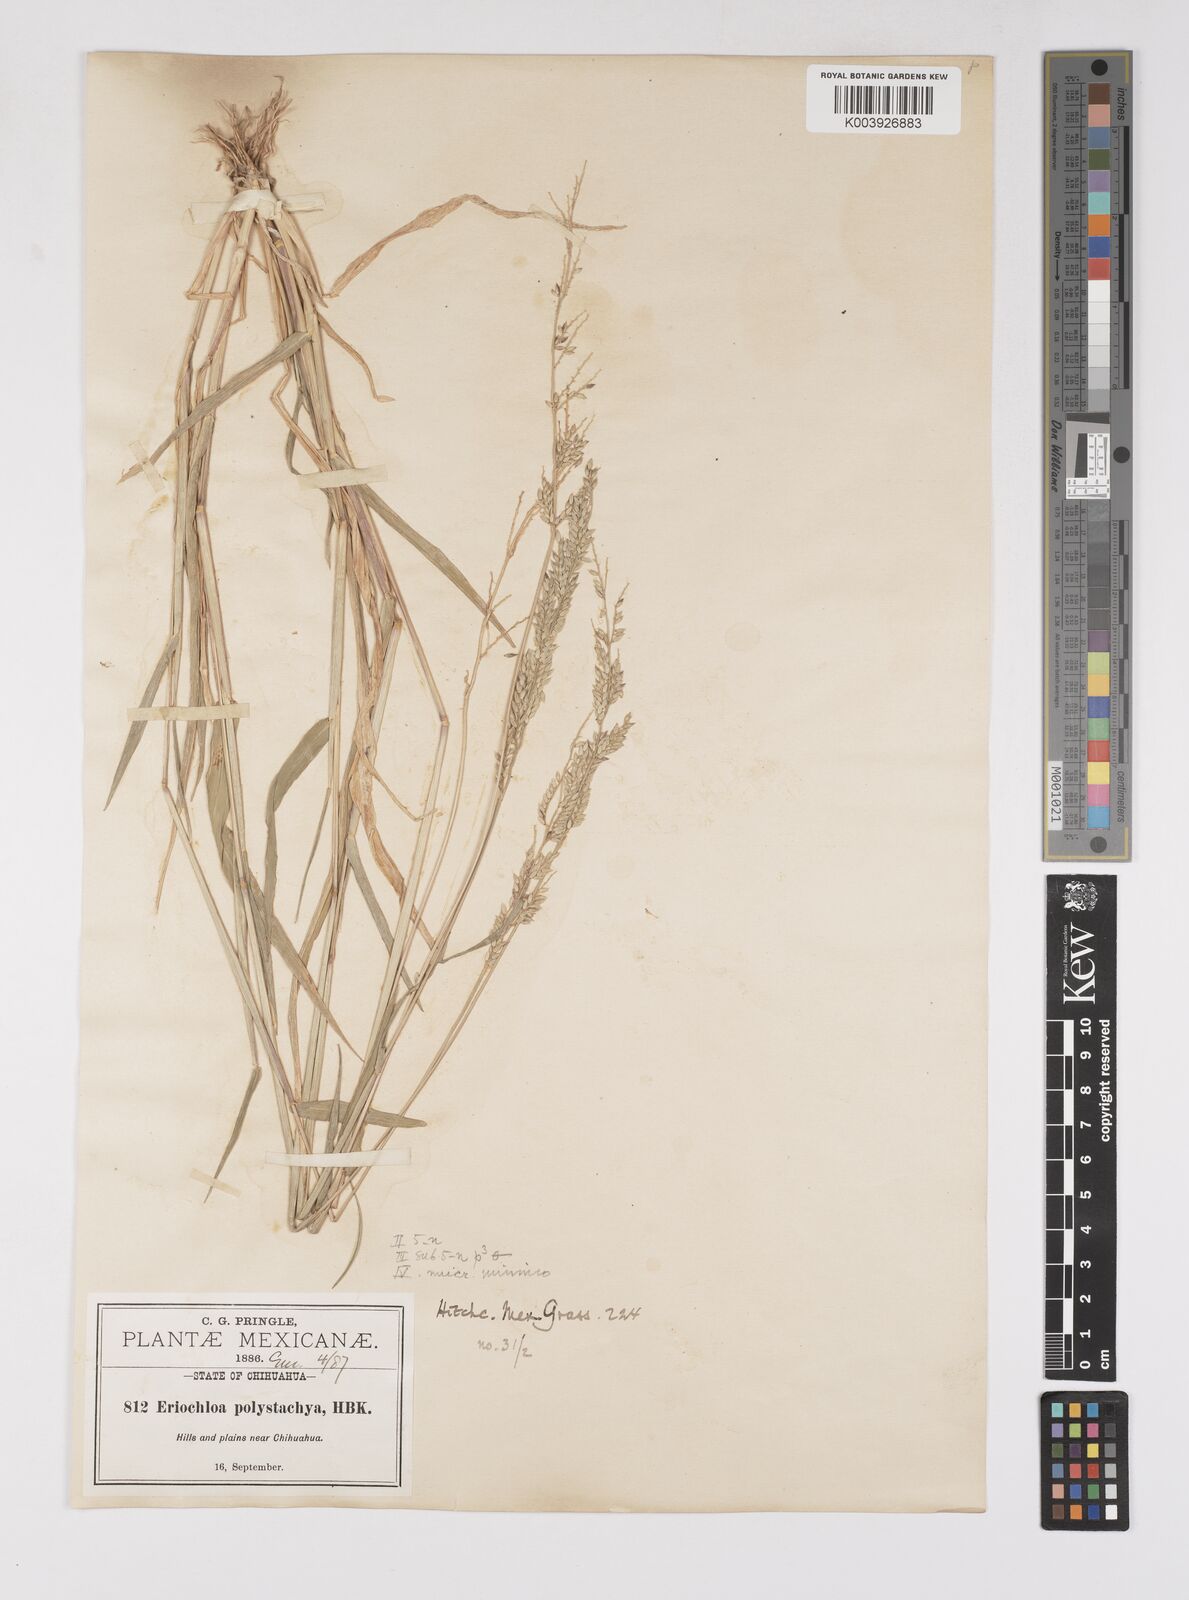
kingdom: Plantae
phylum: Tracheophyta
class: Liliopsida
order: Poales
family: Poaceae
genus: Eriochloa
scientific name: Eriochloa
